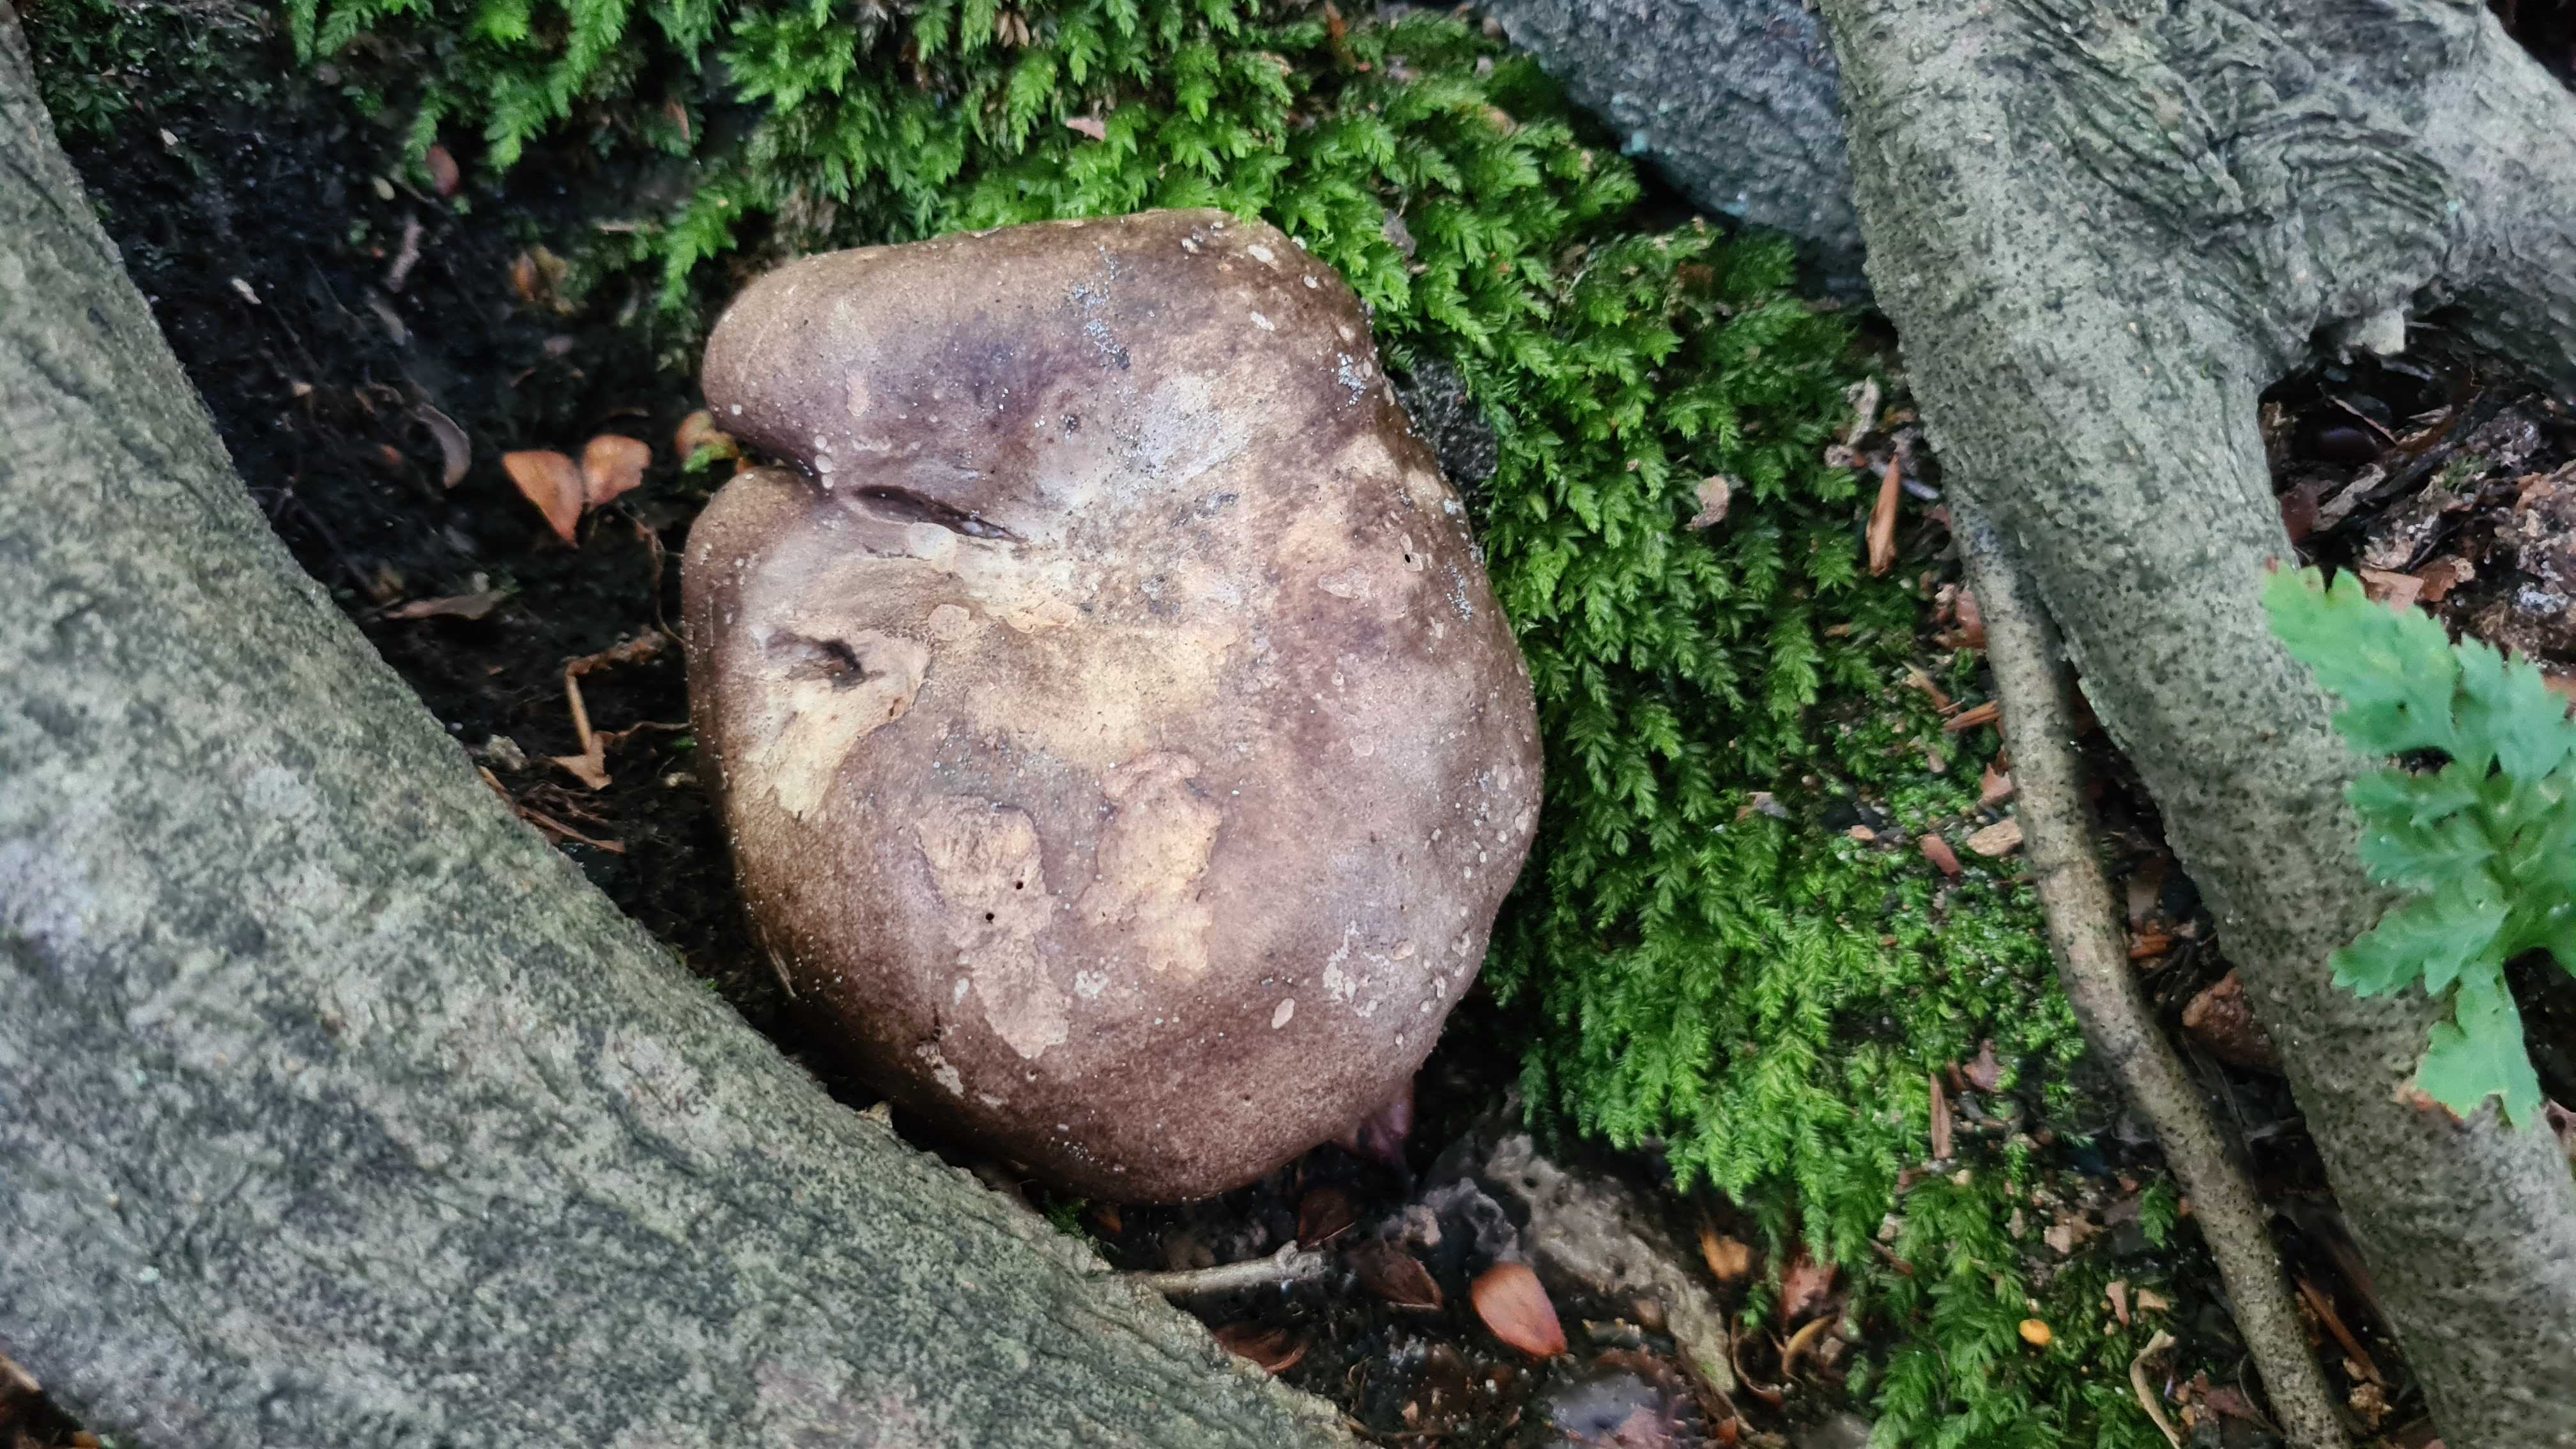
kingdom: Fungi
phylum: Basidiomycota
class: Agaricomycetes
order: Russulales
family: Russulaceae
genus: Russula
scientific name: Russula adusta
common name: sværtende skørhat
